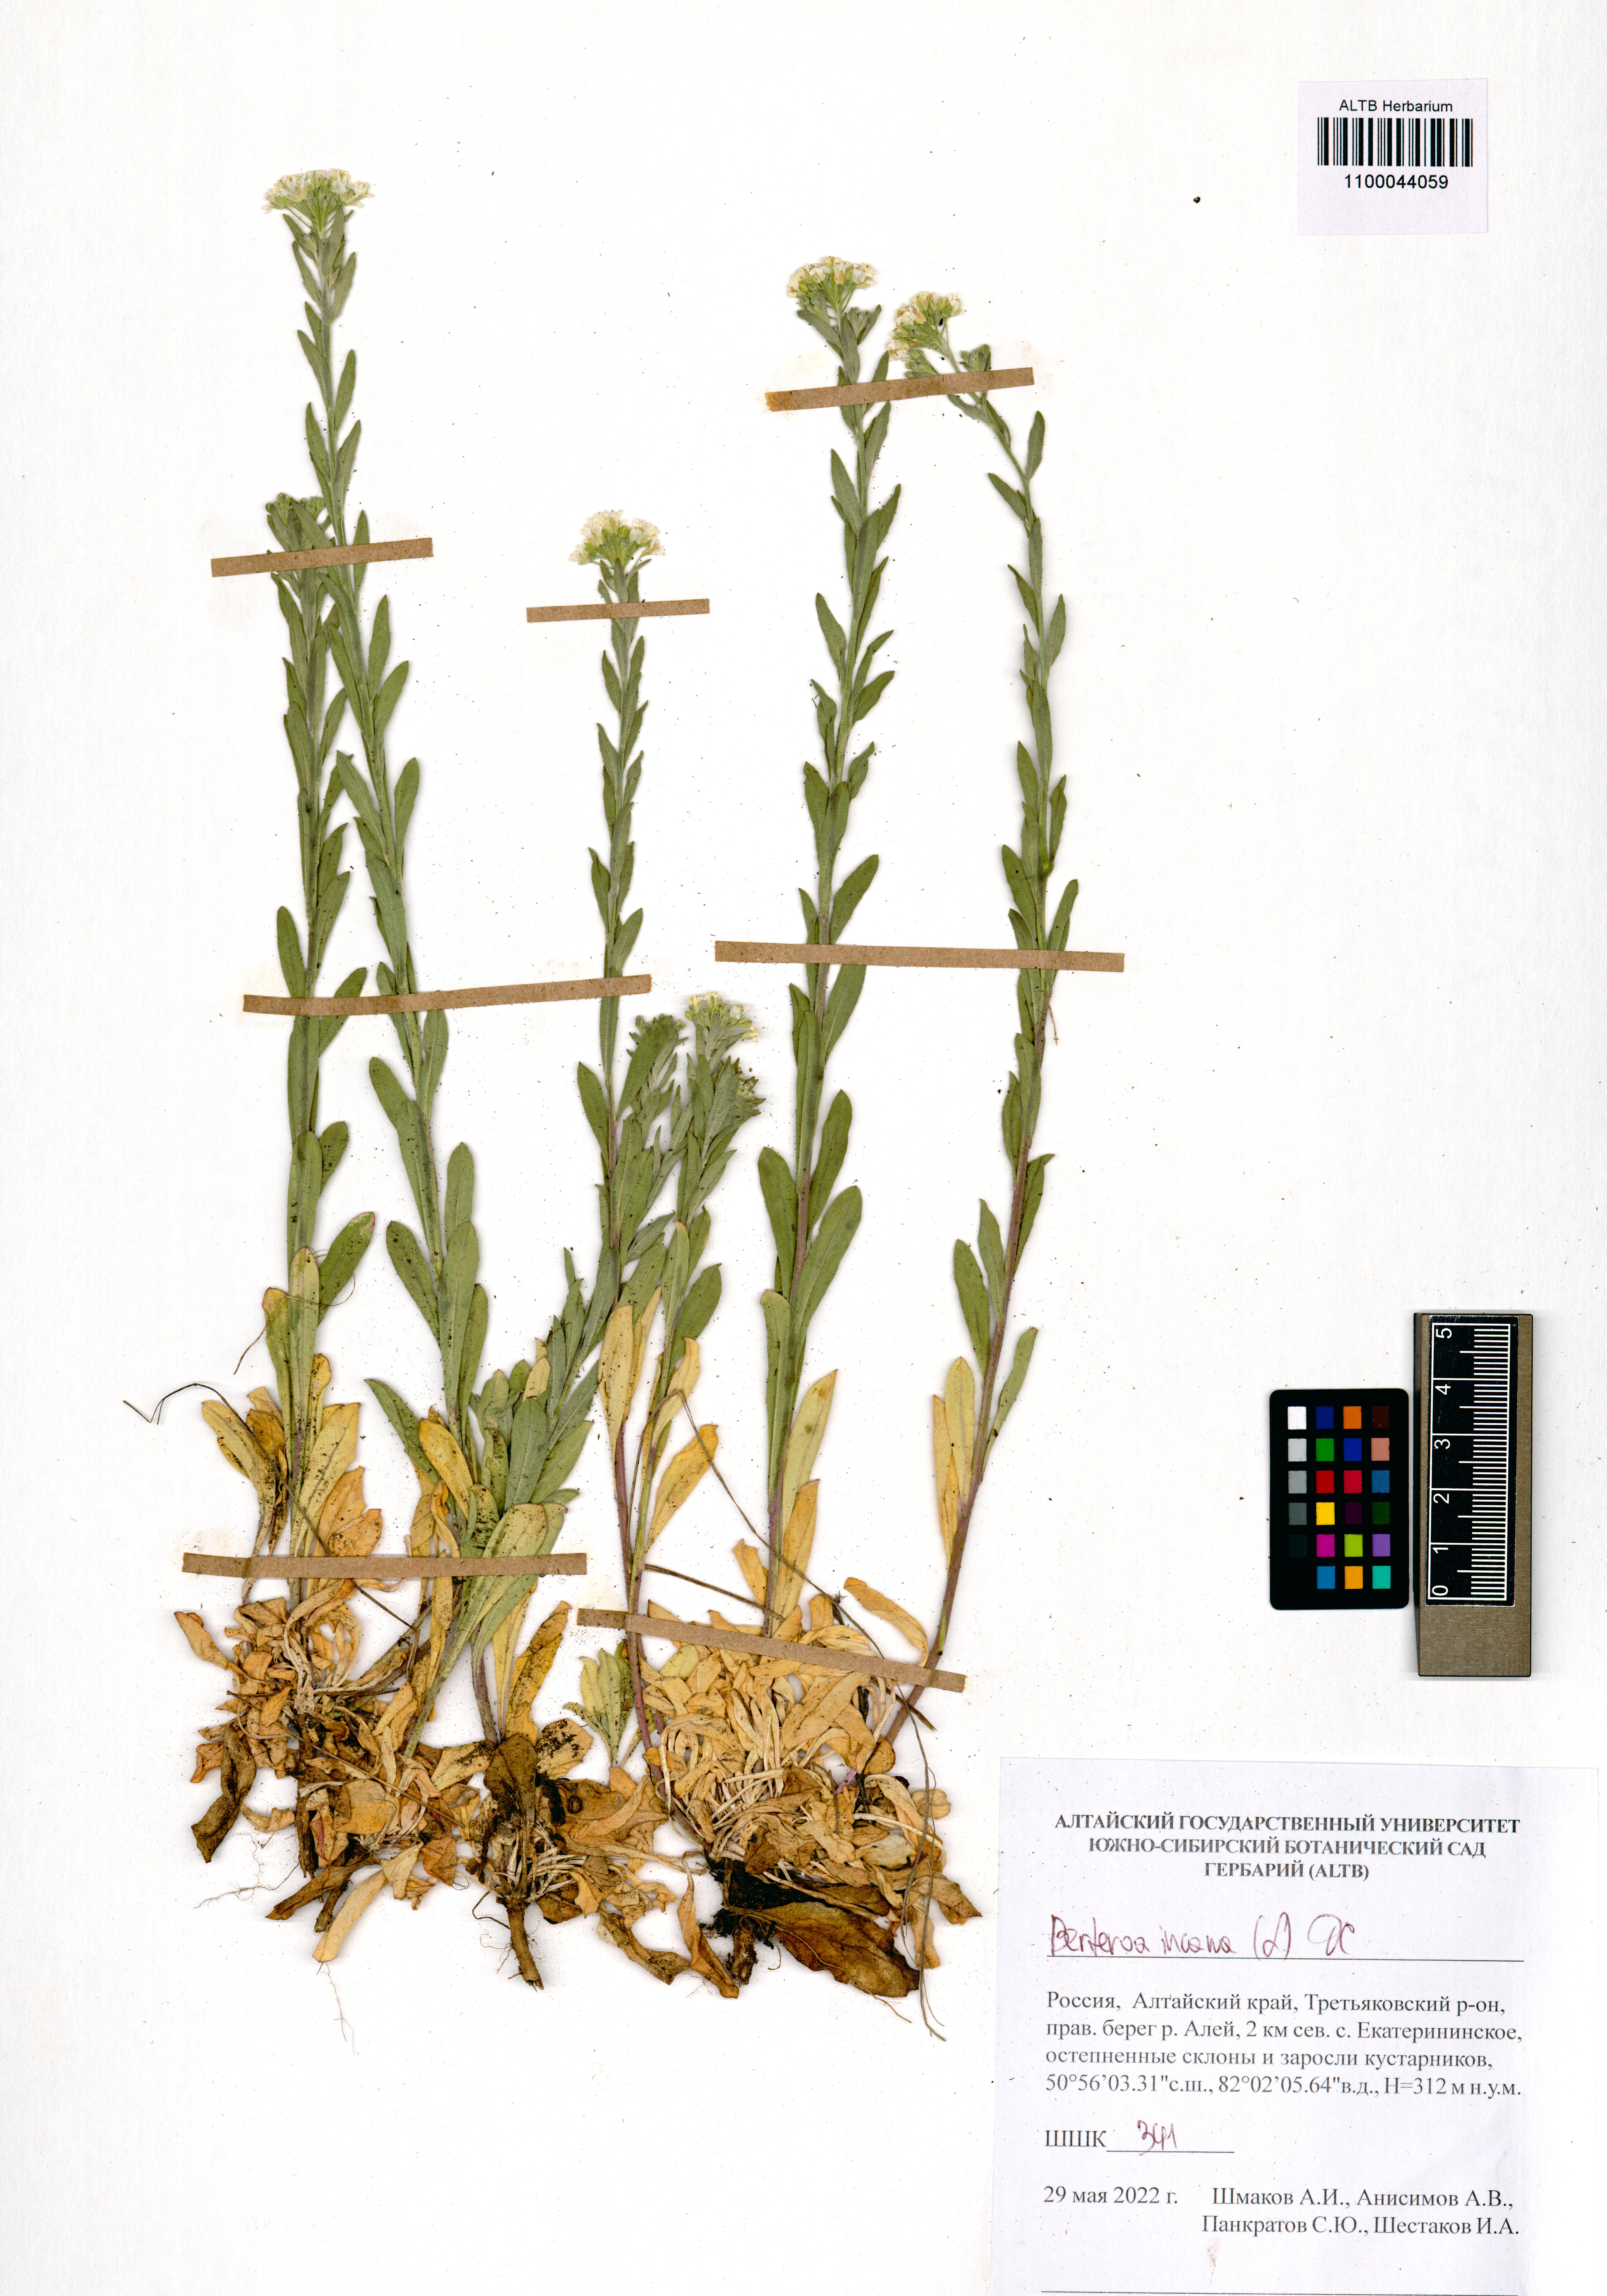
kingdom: Plantae
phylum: Tracheophyta
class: Magnoliopsida
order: Brassicales
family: Brassicaceae
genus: Berteroa
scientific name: Berteroa incana
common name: Hoary alison
